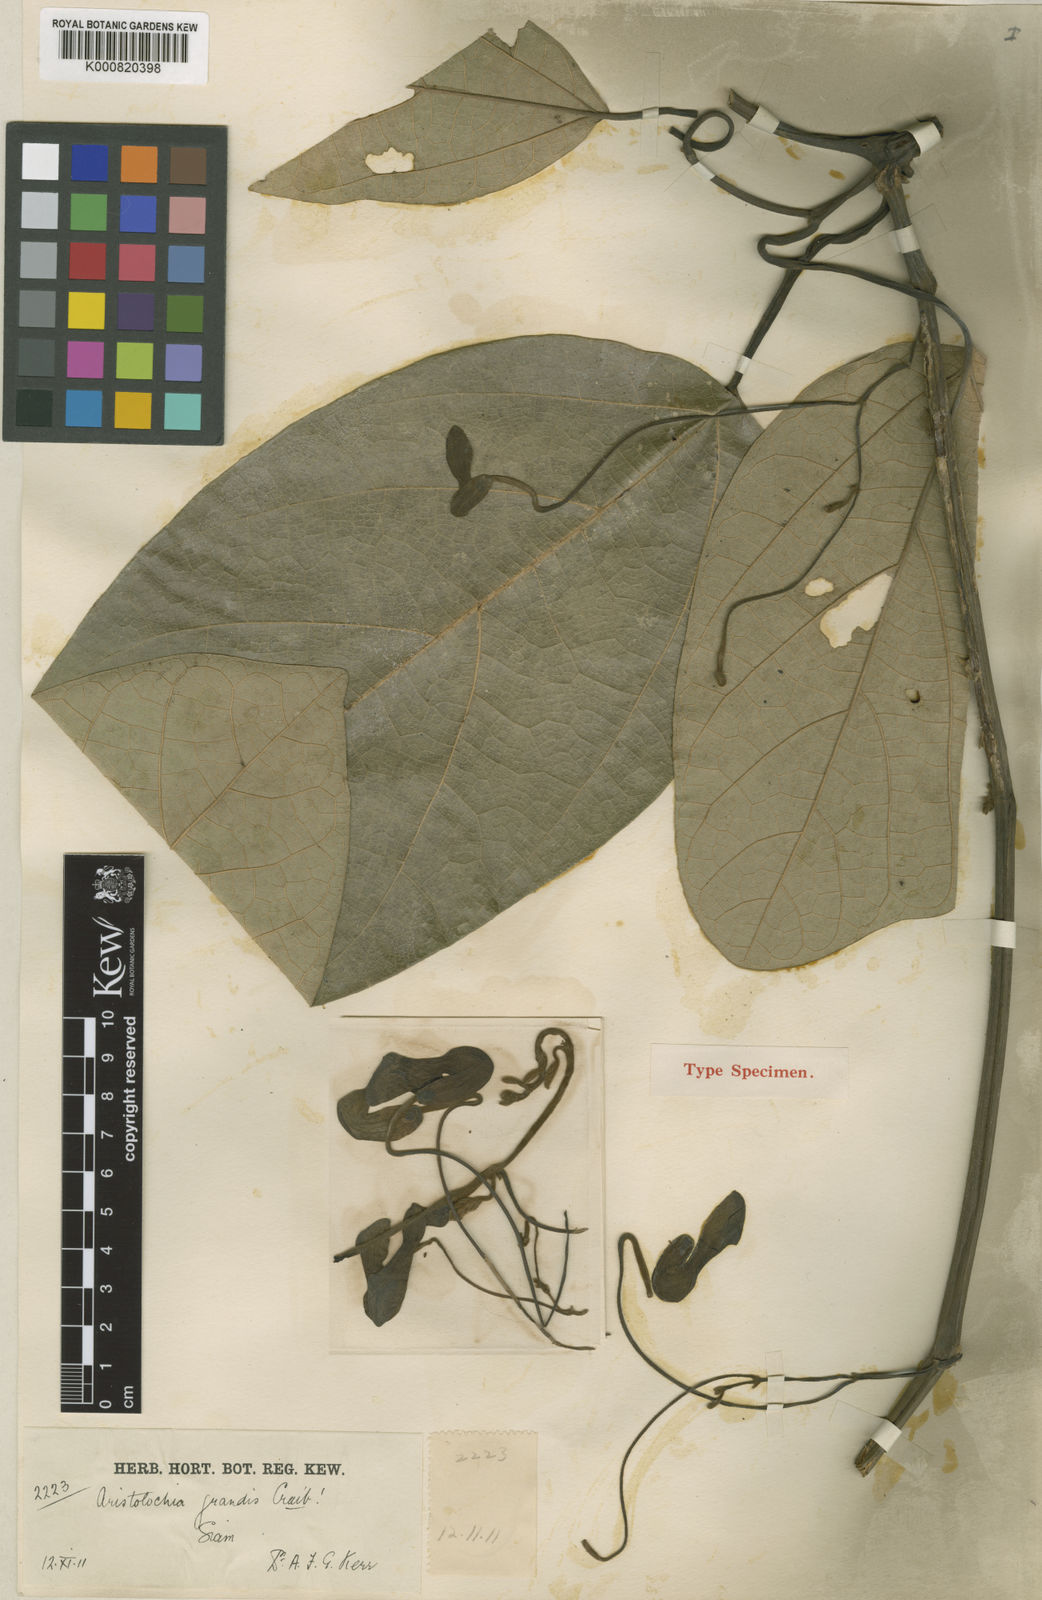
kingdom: Plantae
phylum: Tracheophyta
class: Magnoliopsida
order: Piperales
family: Aristolochiaceae
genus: Isotrema
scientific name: Isotrema
